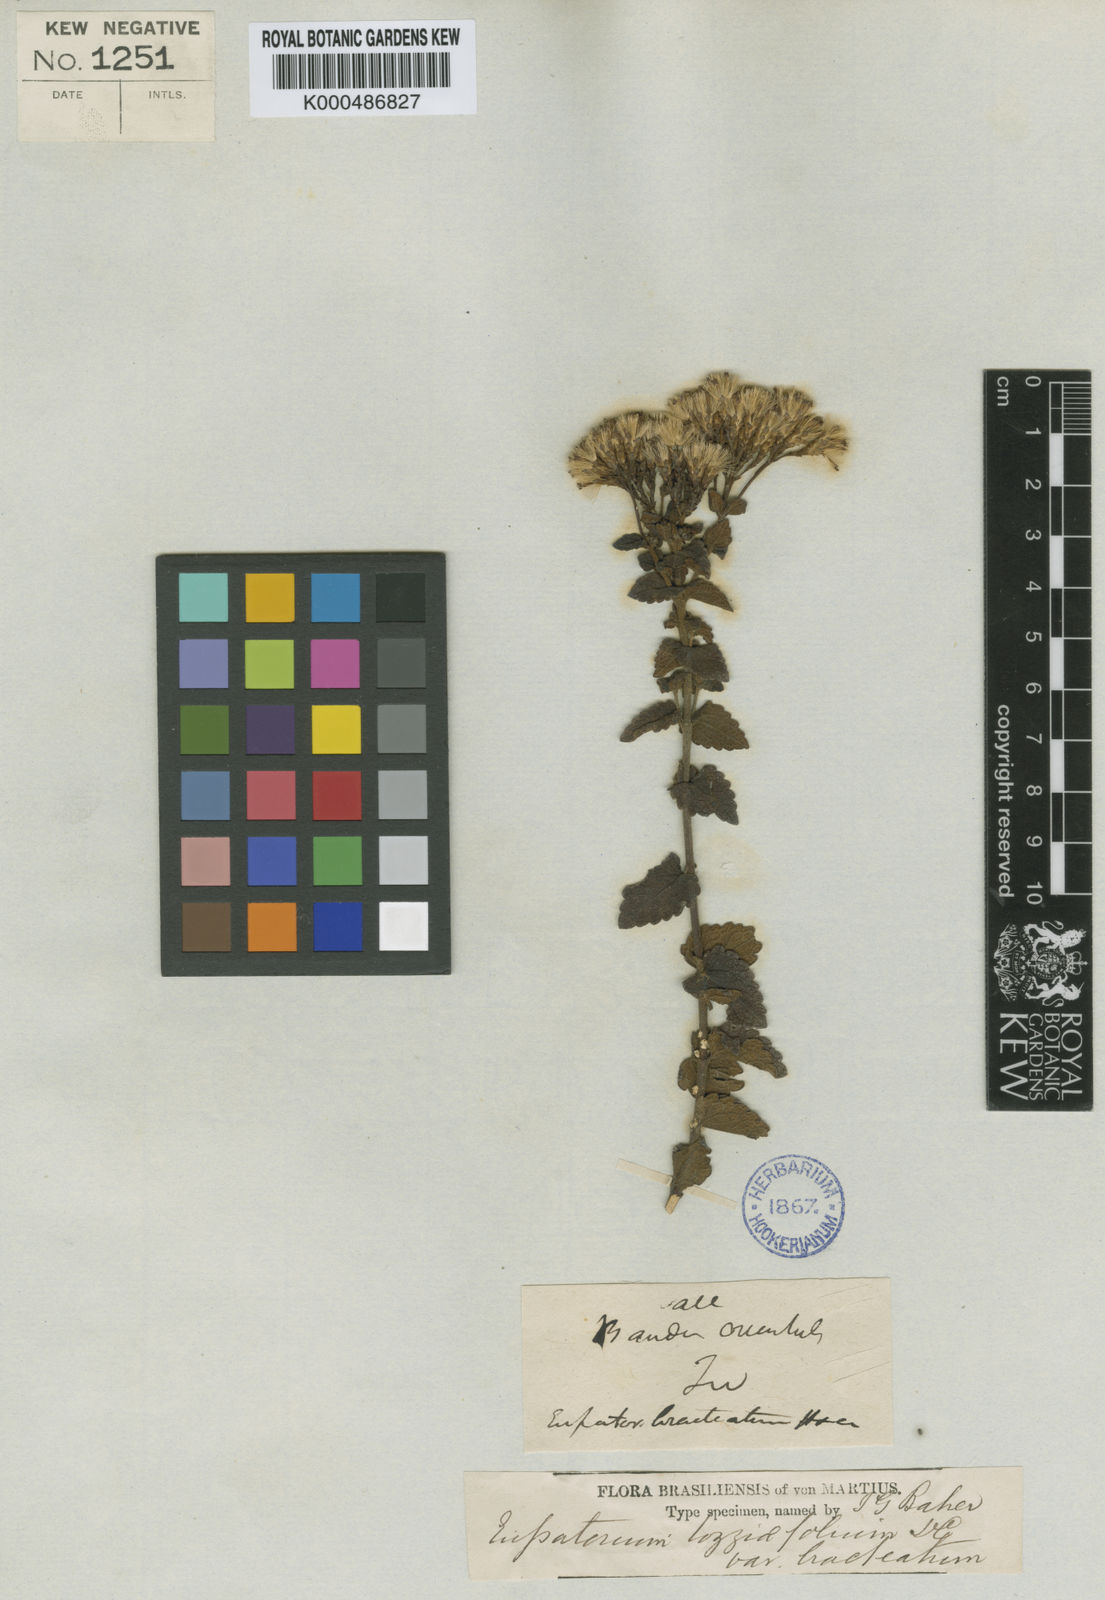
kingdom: Plantae
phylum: Tracheophyta
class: Magnoliopsida
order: Asterales
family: Asteraceae
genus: Chromolaena
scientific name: Chromolaena congesta
